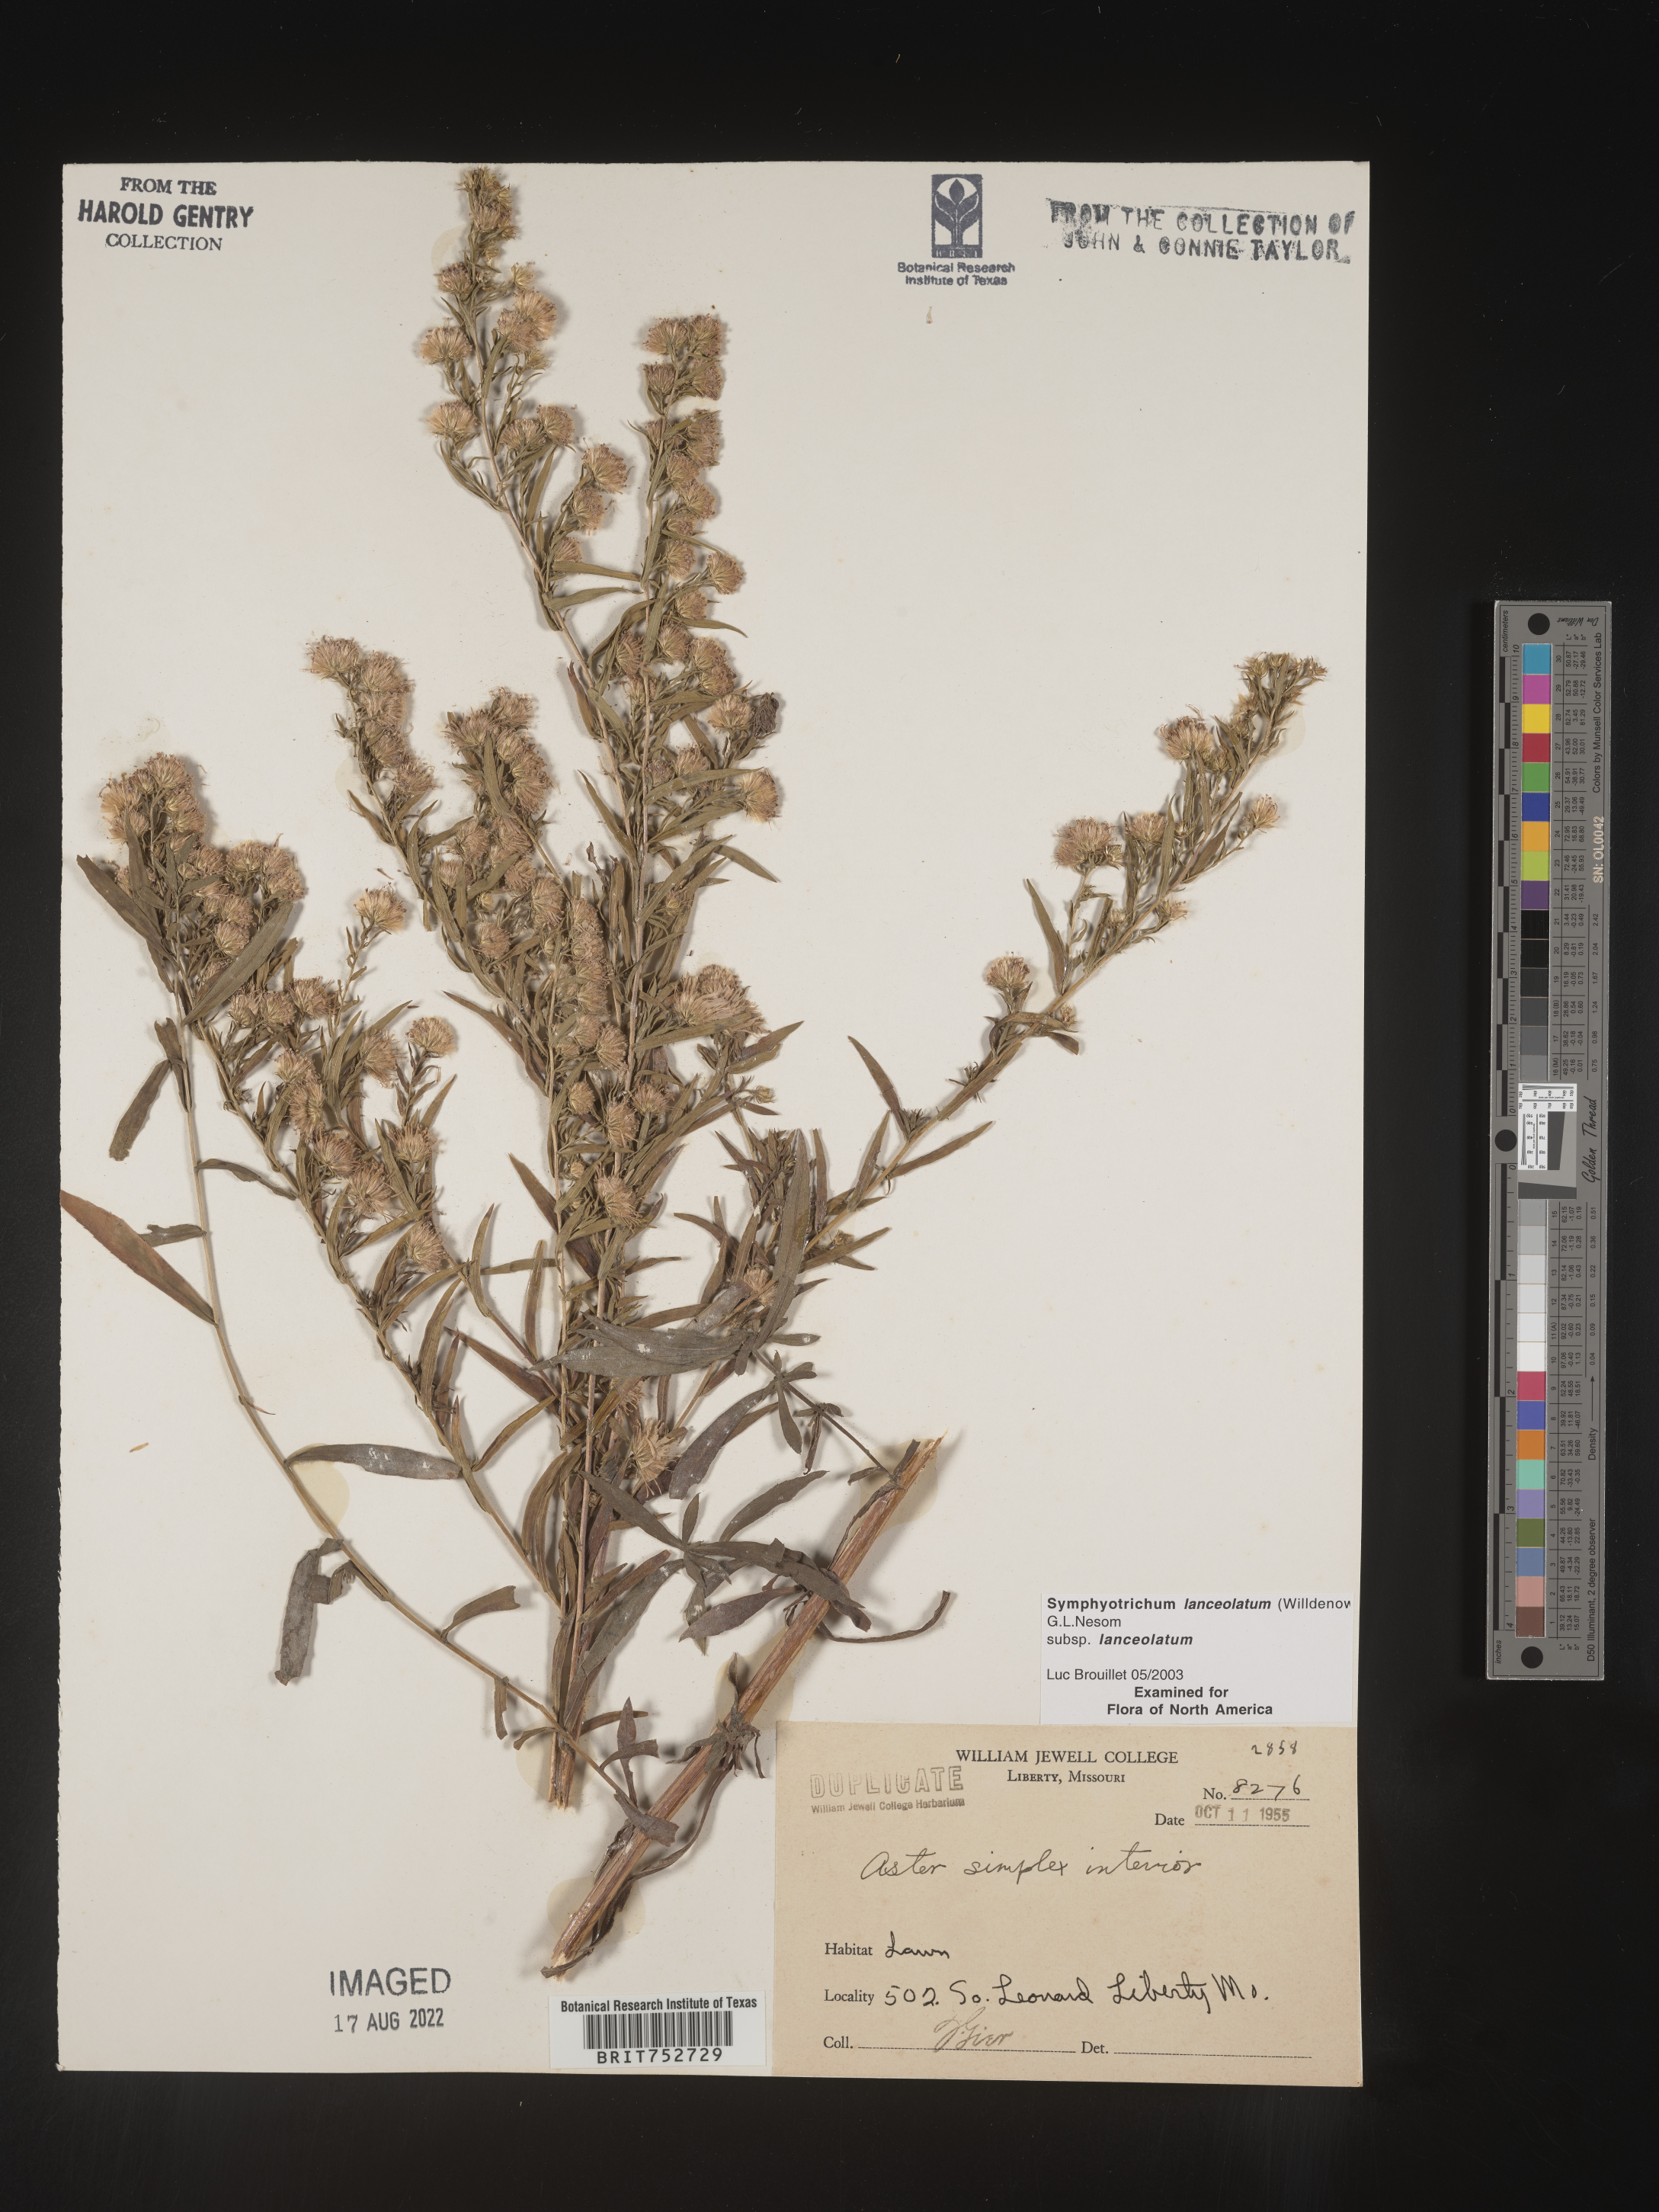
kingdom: Plantae
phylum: Tracheophyta
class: Magnoliopsida
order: Asterales
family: Asteraceae
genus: Symphyotrichum
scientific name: Symphyotrichum lanceolatum
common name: Panicled aster
